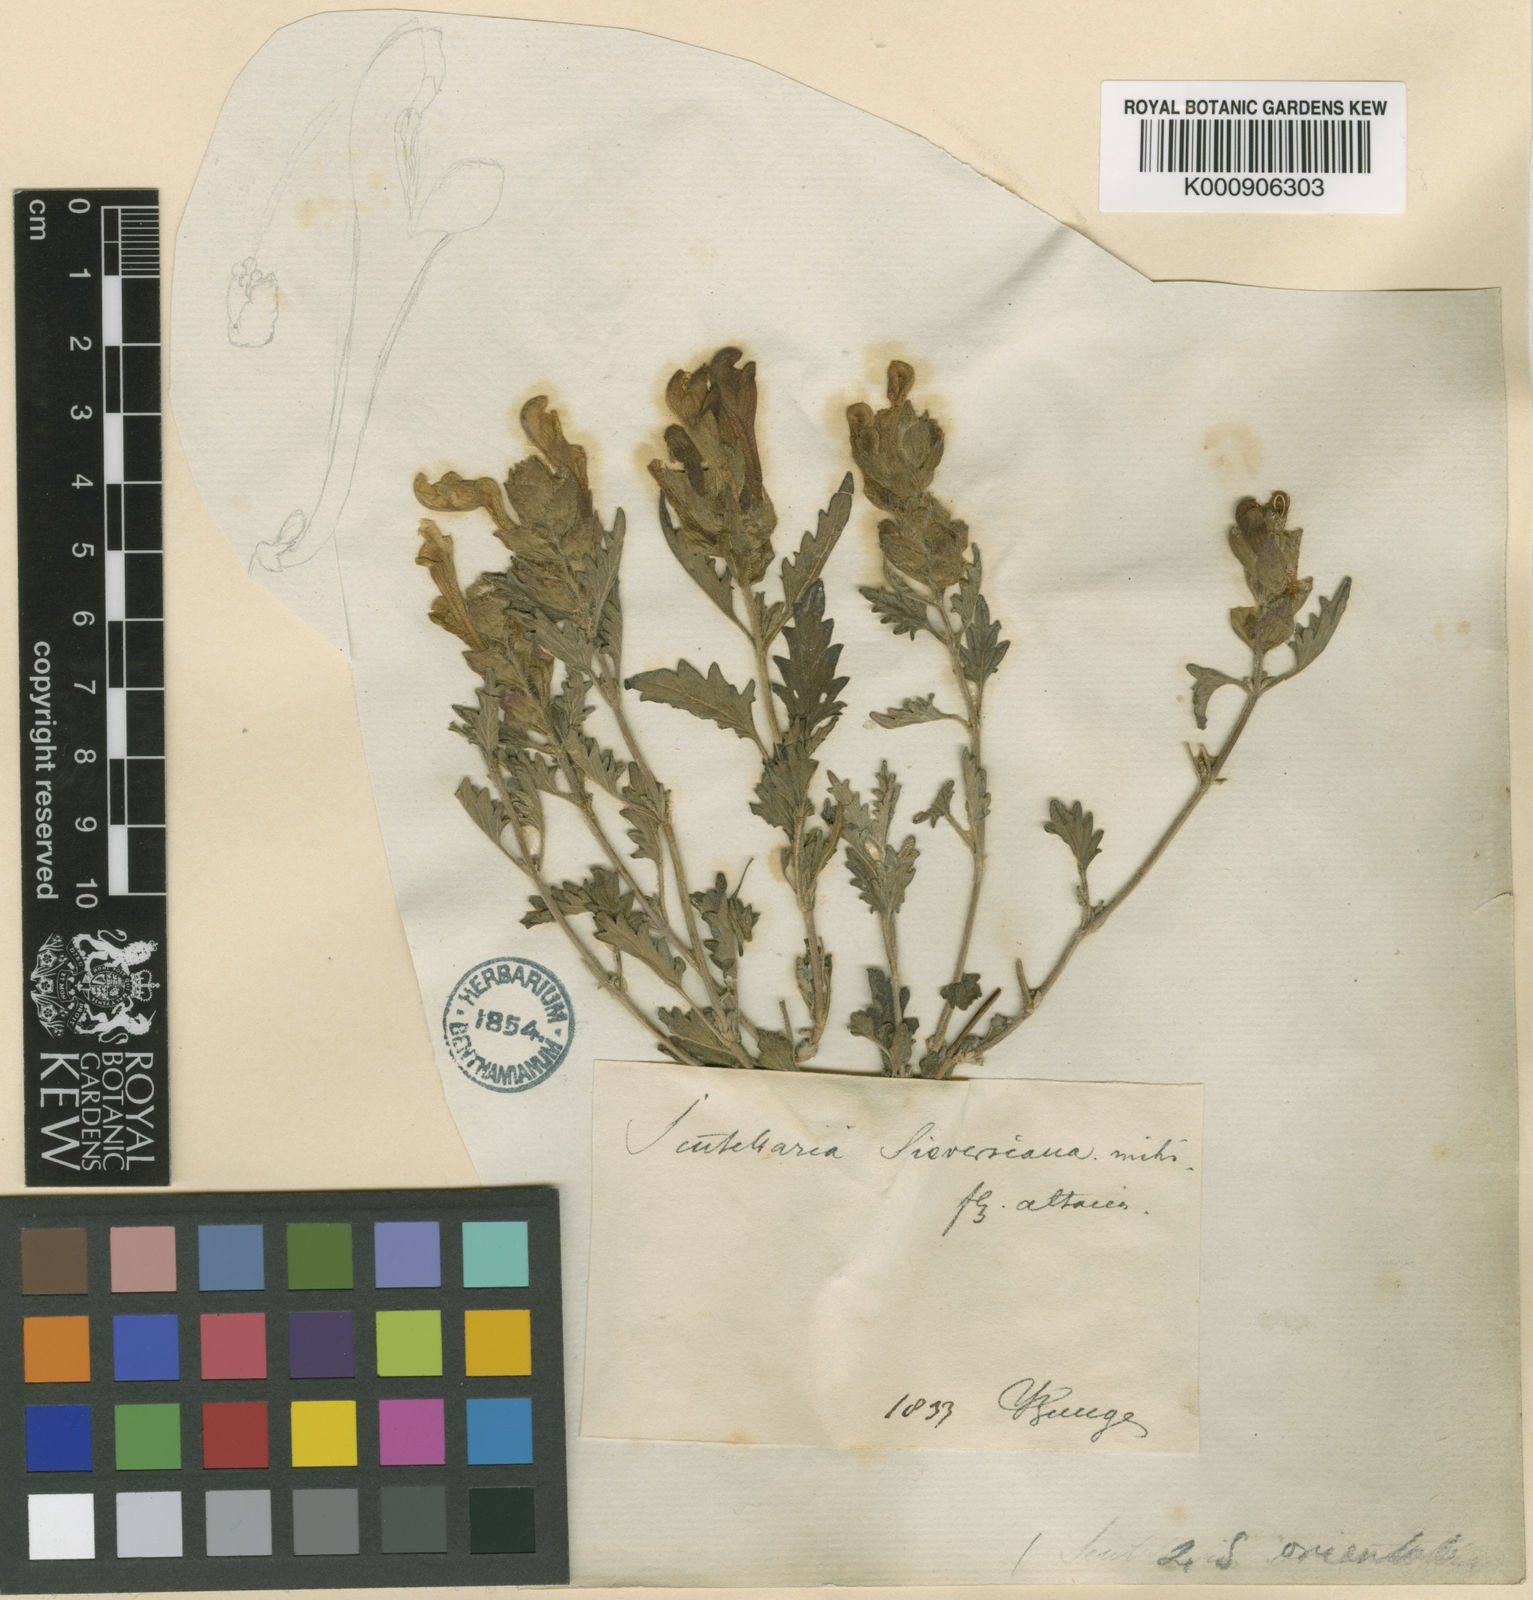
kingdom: Plantae
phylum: Tracheophyta
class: Magnoliopsida
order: Lamiales
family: Lamiaceae
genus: Scutellaria
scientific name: Scutellaria orientalis
